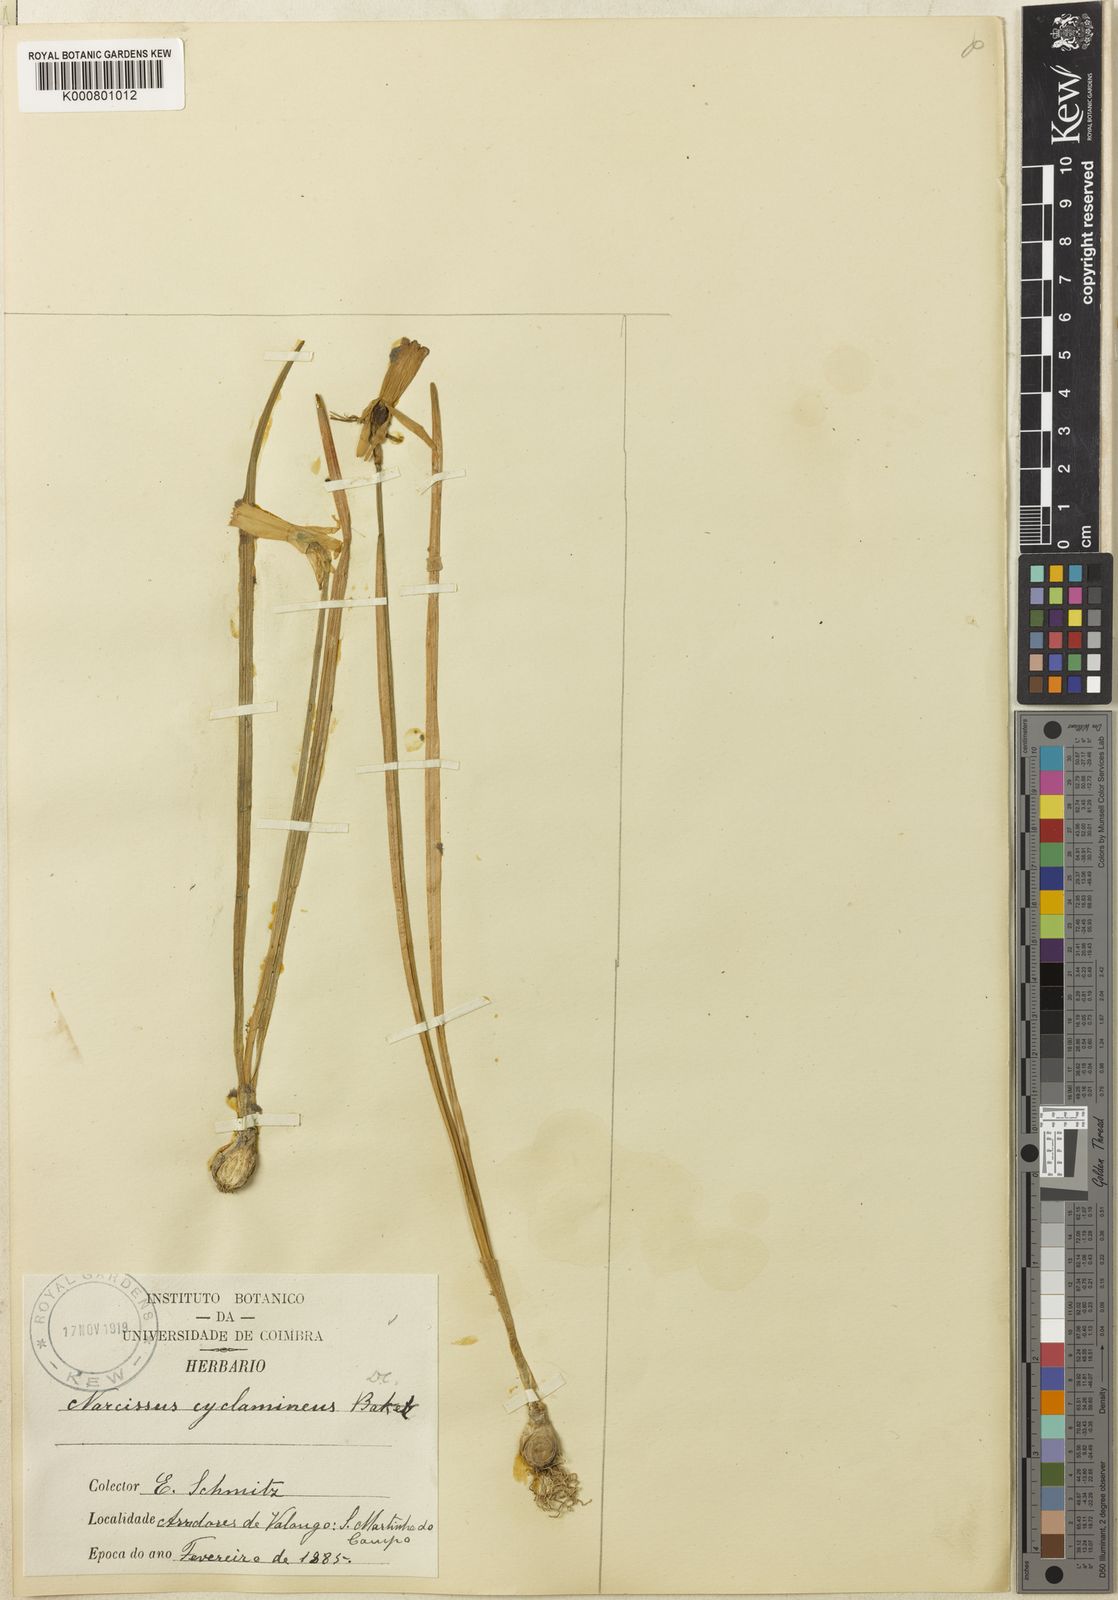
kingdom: Plantae
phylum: Tracheophyta
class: Liliopsida
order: Asparagales
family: Amaryllidaceae
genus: Narcissus
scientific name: Narcissus cyclamineus
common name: Cyclamen-flowered daffodil
